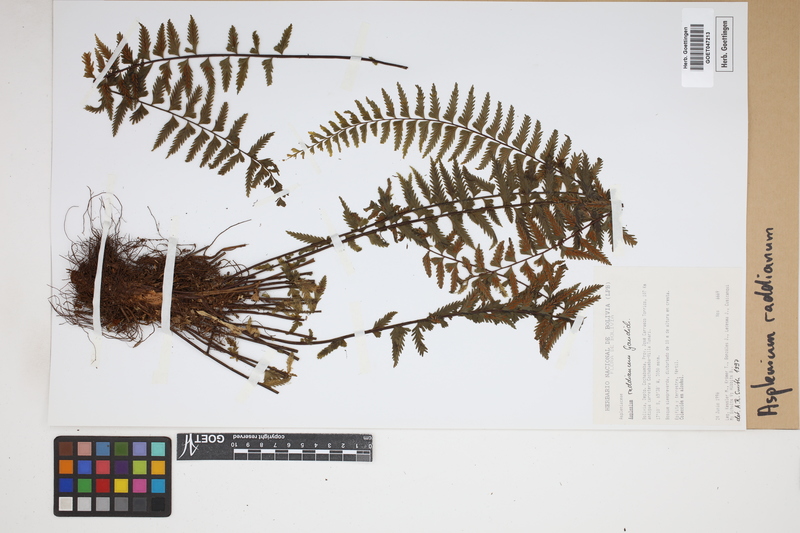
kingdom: Plantae
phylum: Tracheophyta
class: Polypodiopsida
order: Polypodiales
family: Aspleniaceae
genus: Asplenium
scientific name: Asplenium raddianum
